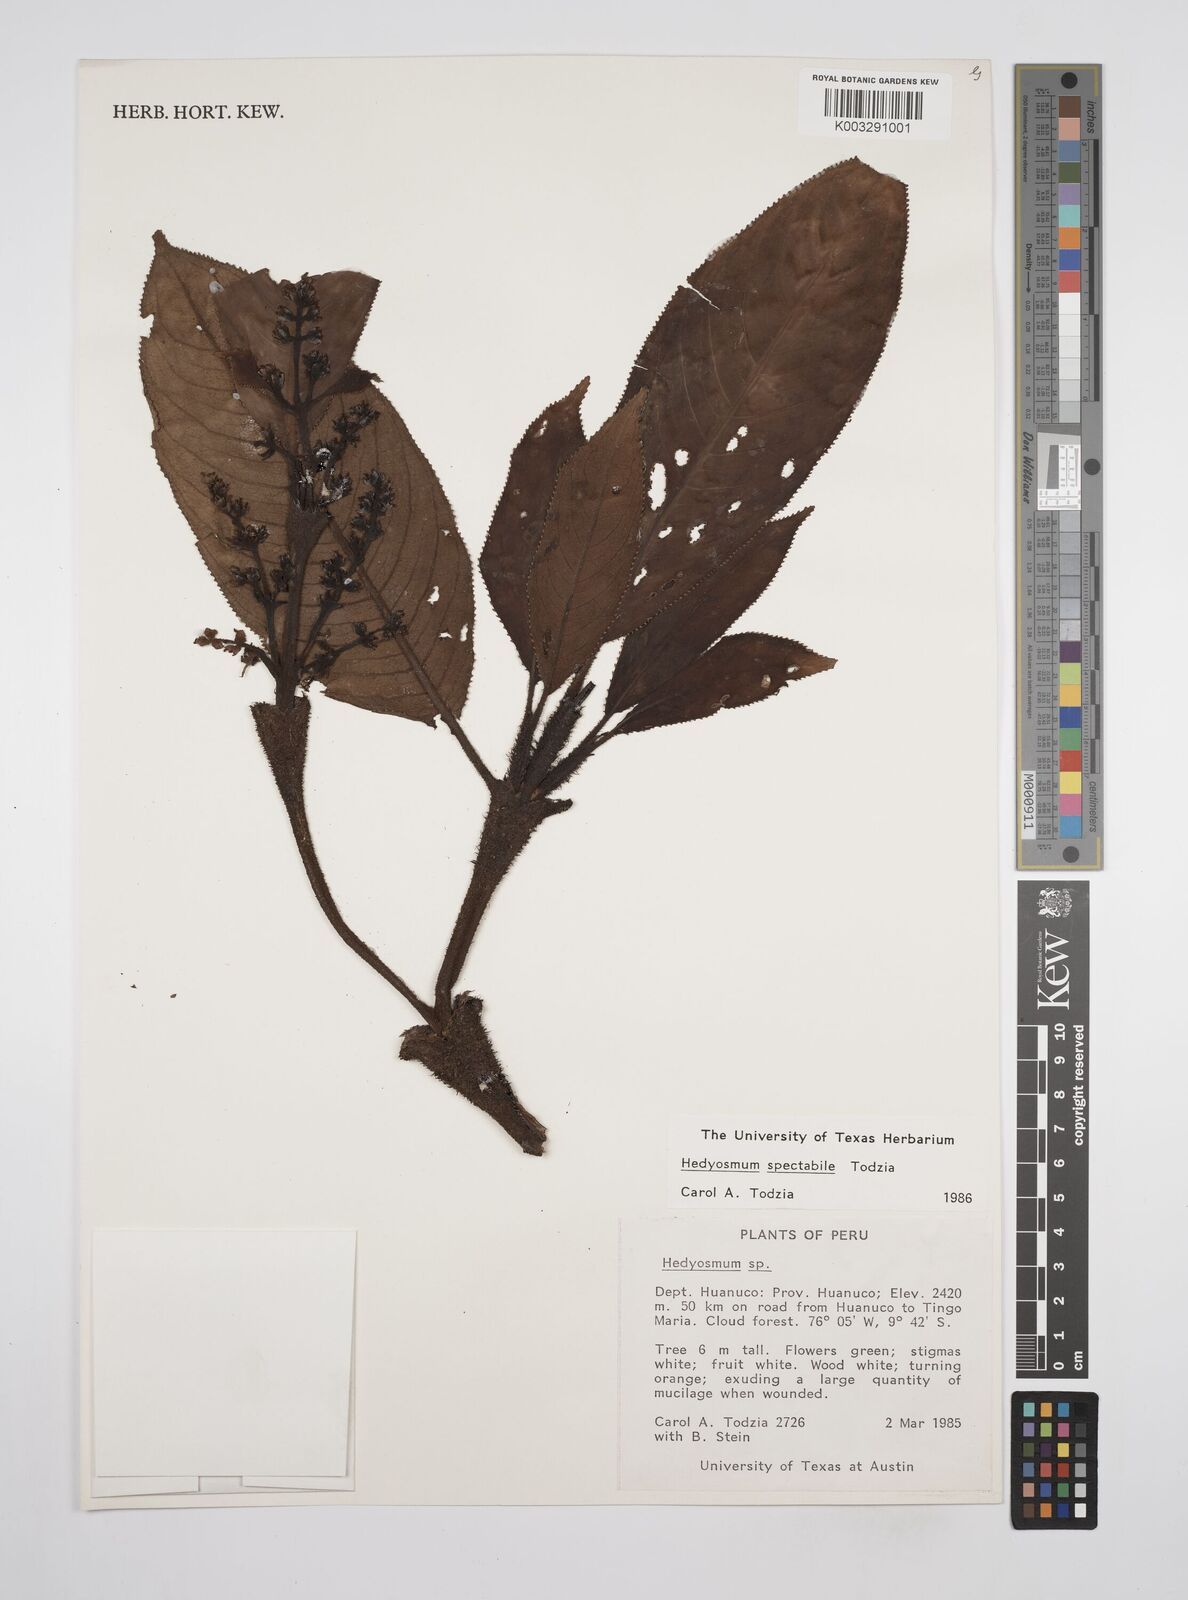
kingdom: Plantae
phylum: Tracheophyta
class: Magnoliopsida
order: Chloranthales
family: Chloranthaceae
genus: Hedyosmum
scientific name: Hedyosmum spectabile
